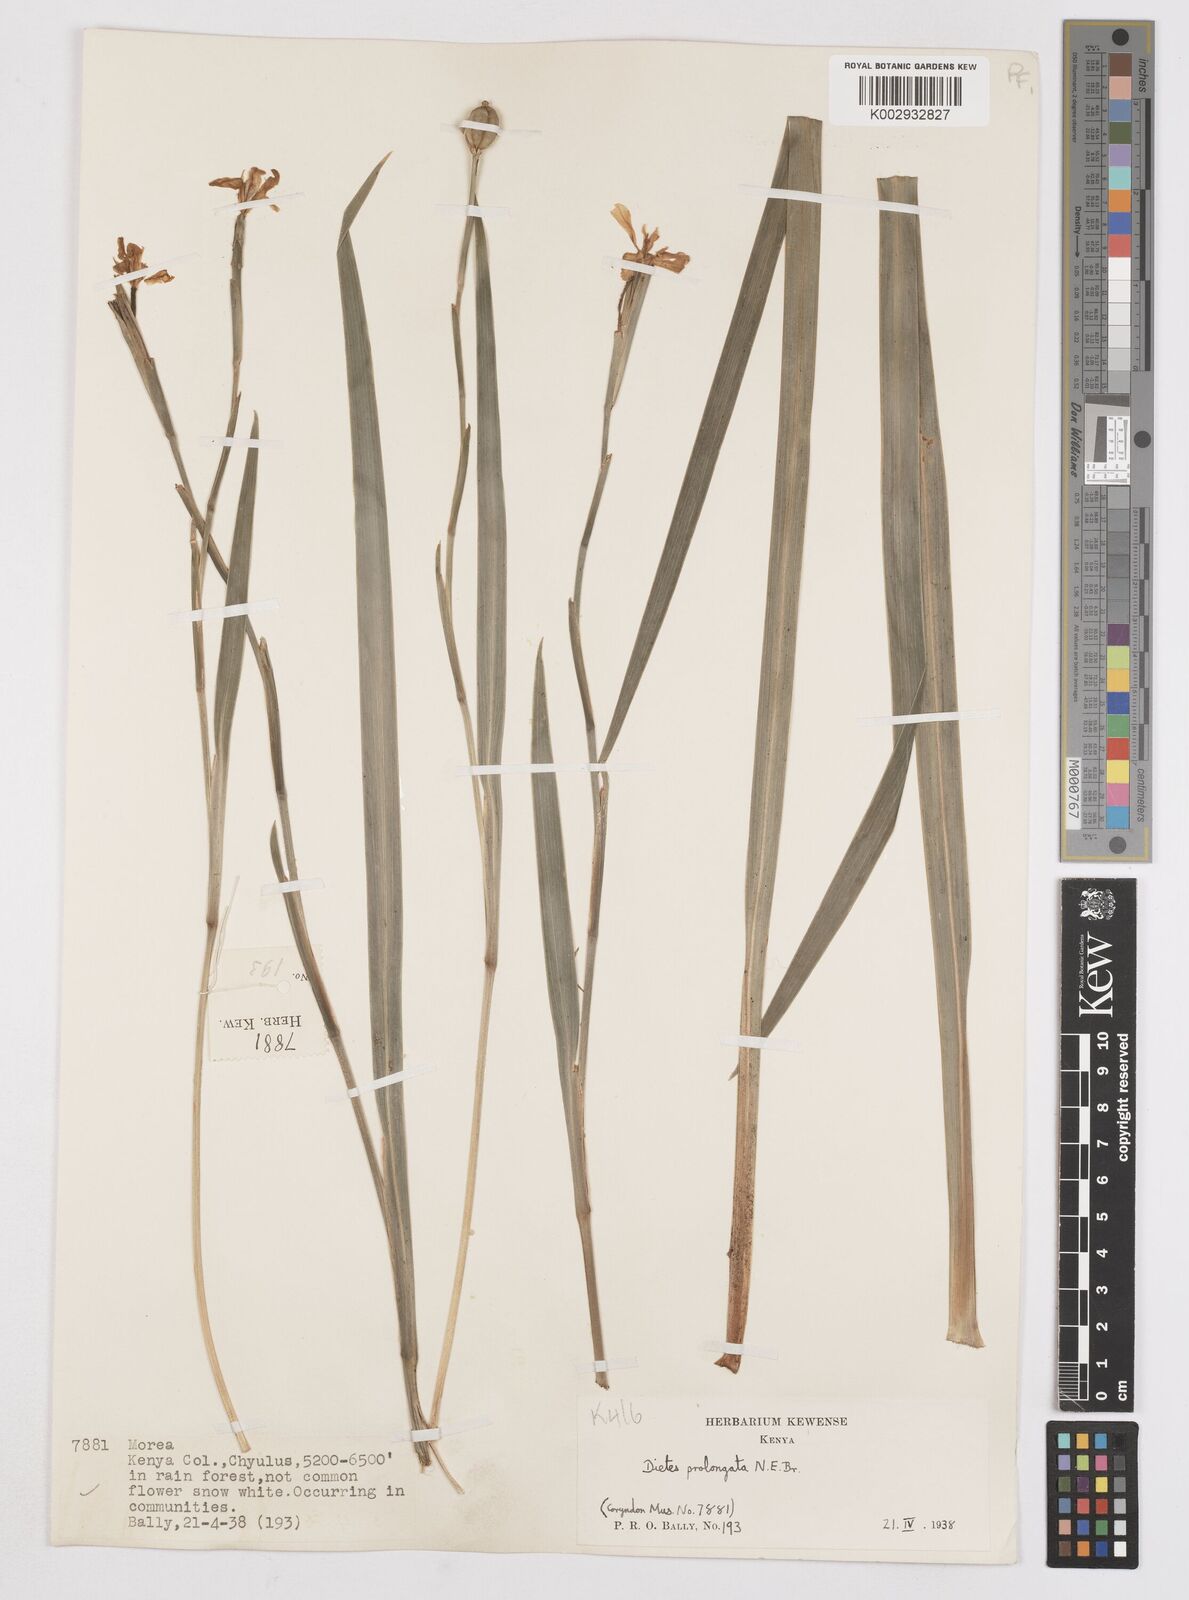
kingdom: Plantae
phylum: Tracheophyta
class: Liliopsida
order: Asparagales
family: Iridaceae
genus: Dietes
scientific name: Dietes iridioides
